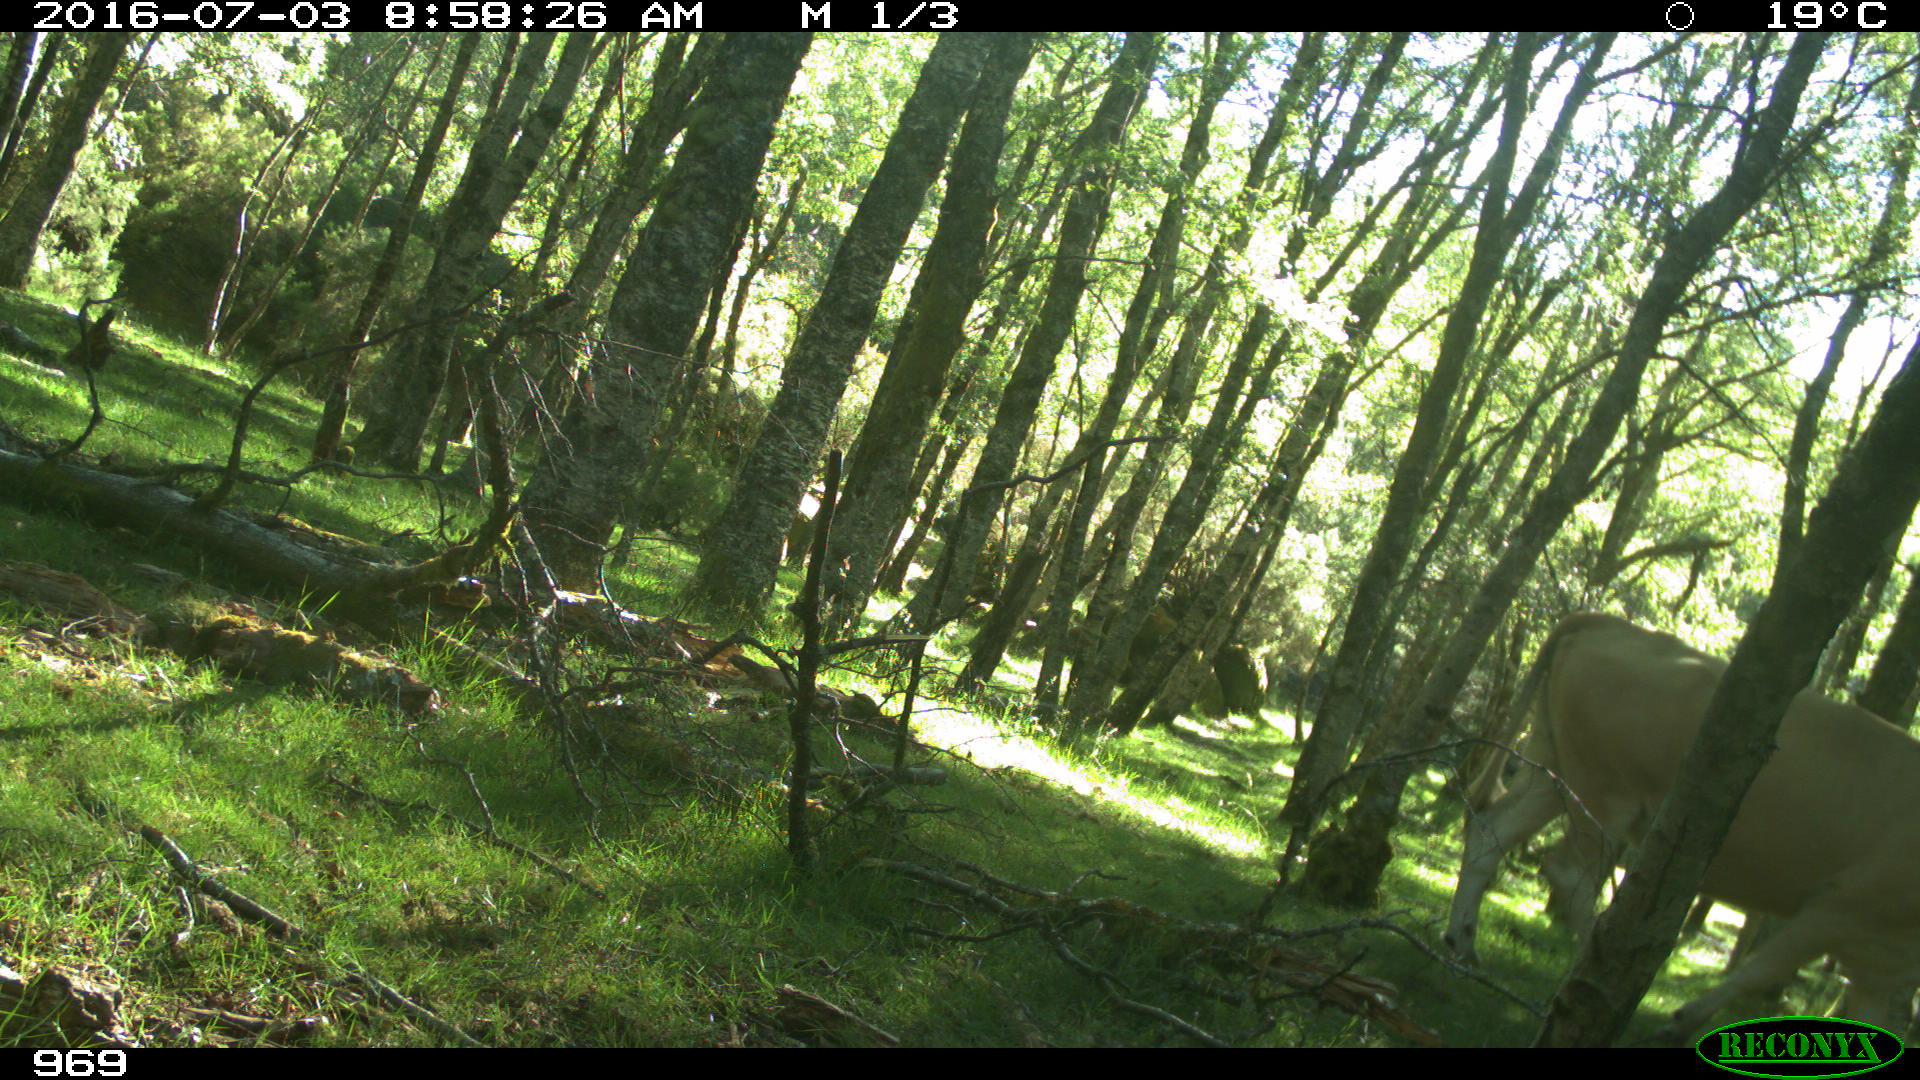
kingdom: Animalia
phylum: Chordata
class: Mammalia
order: Artiodactyla
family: Bovidae
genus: Bos
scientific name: Bos taurus
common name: Domesticated cattle
